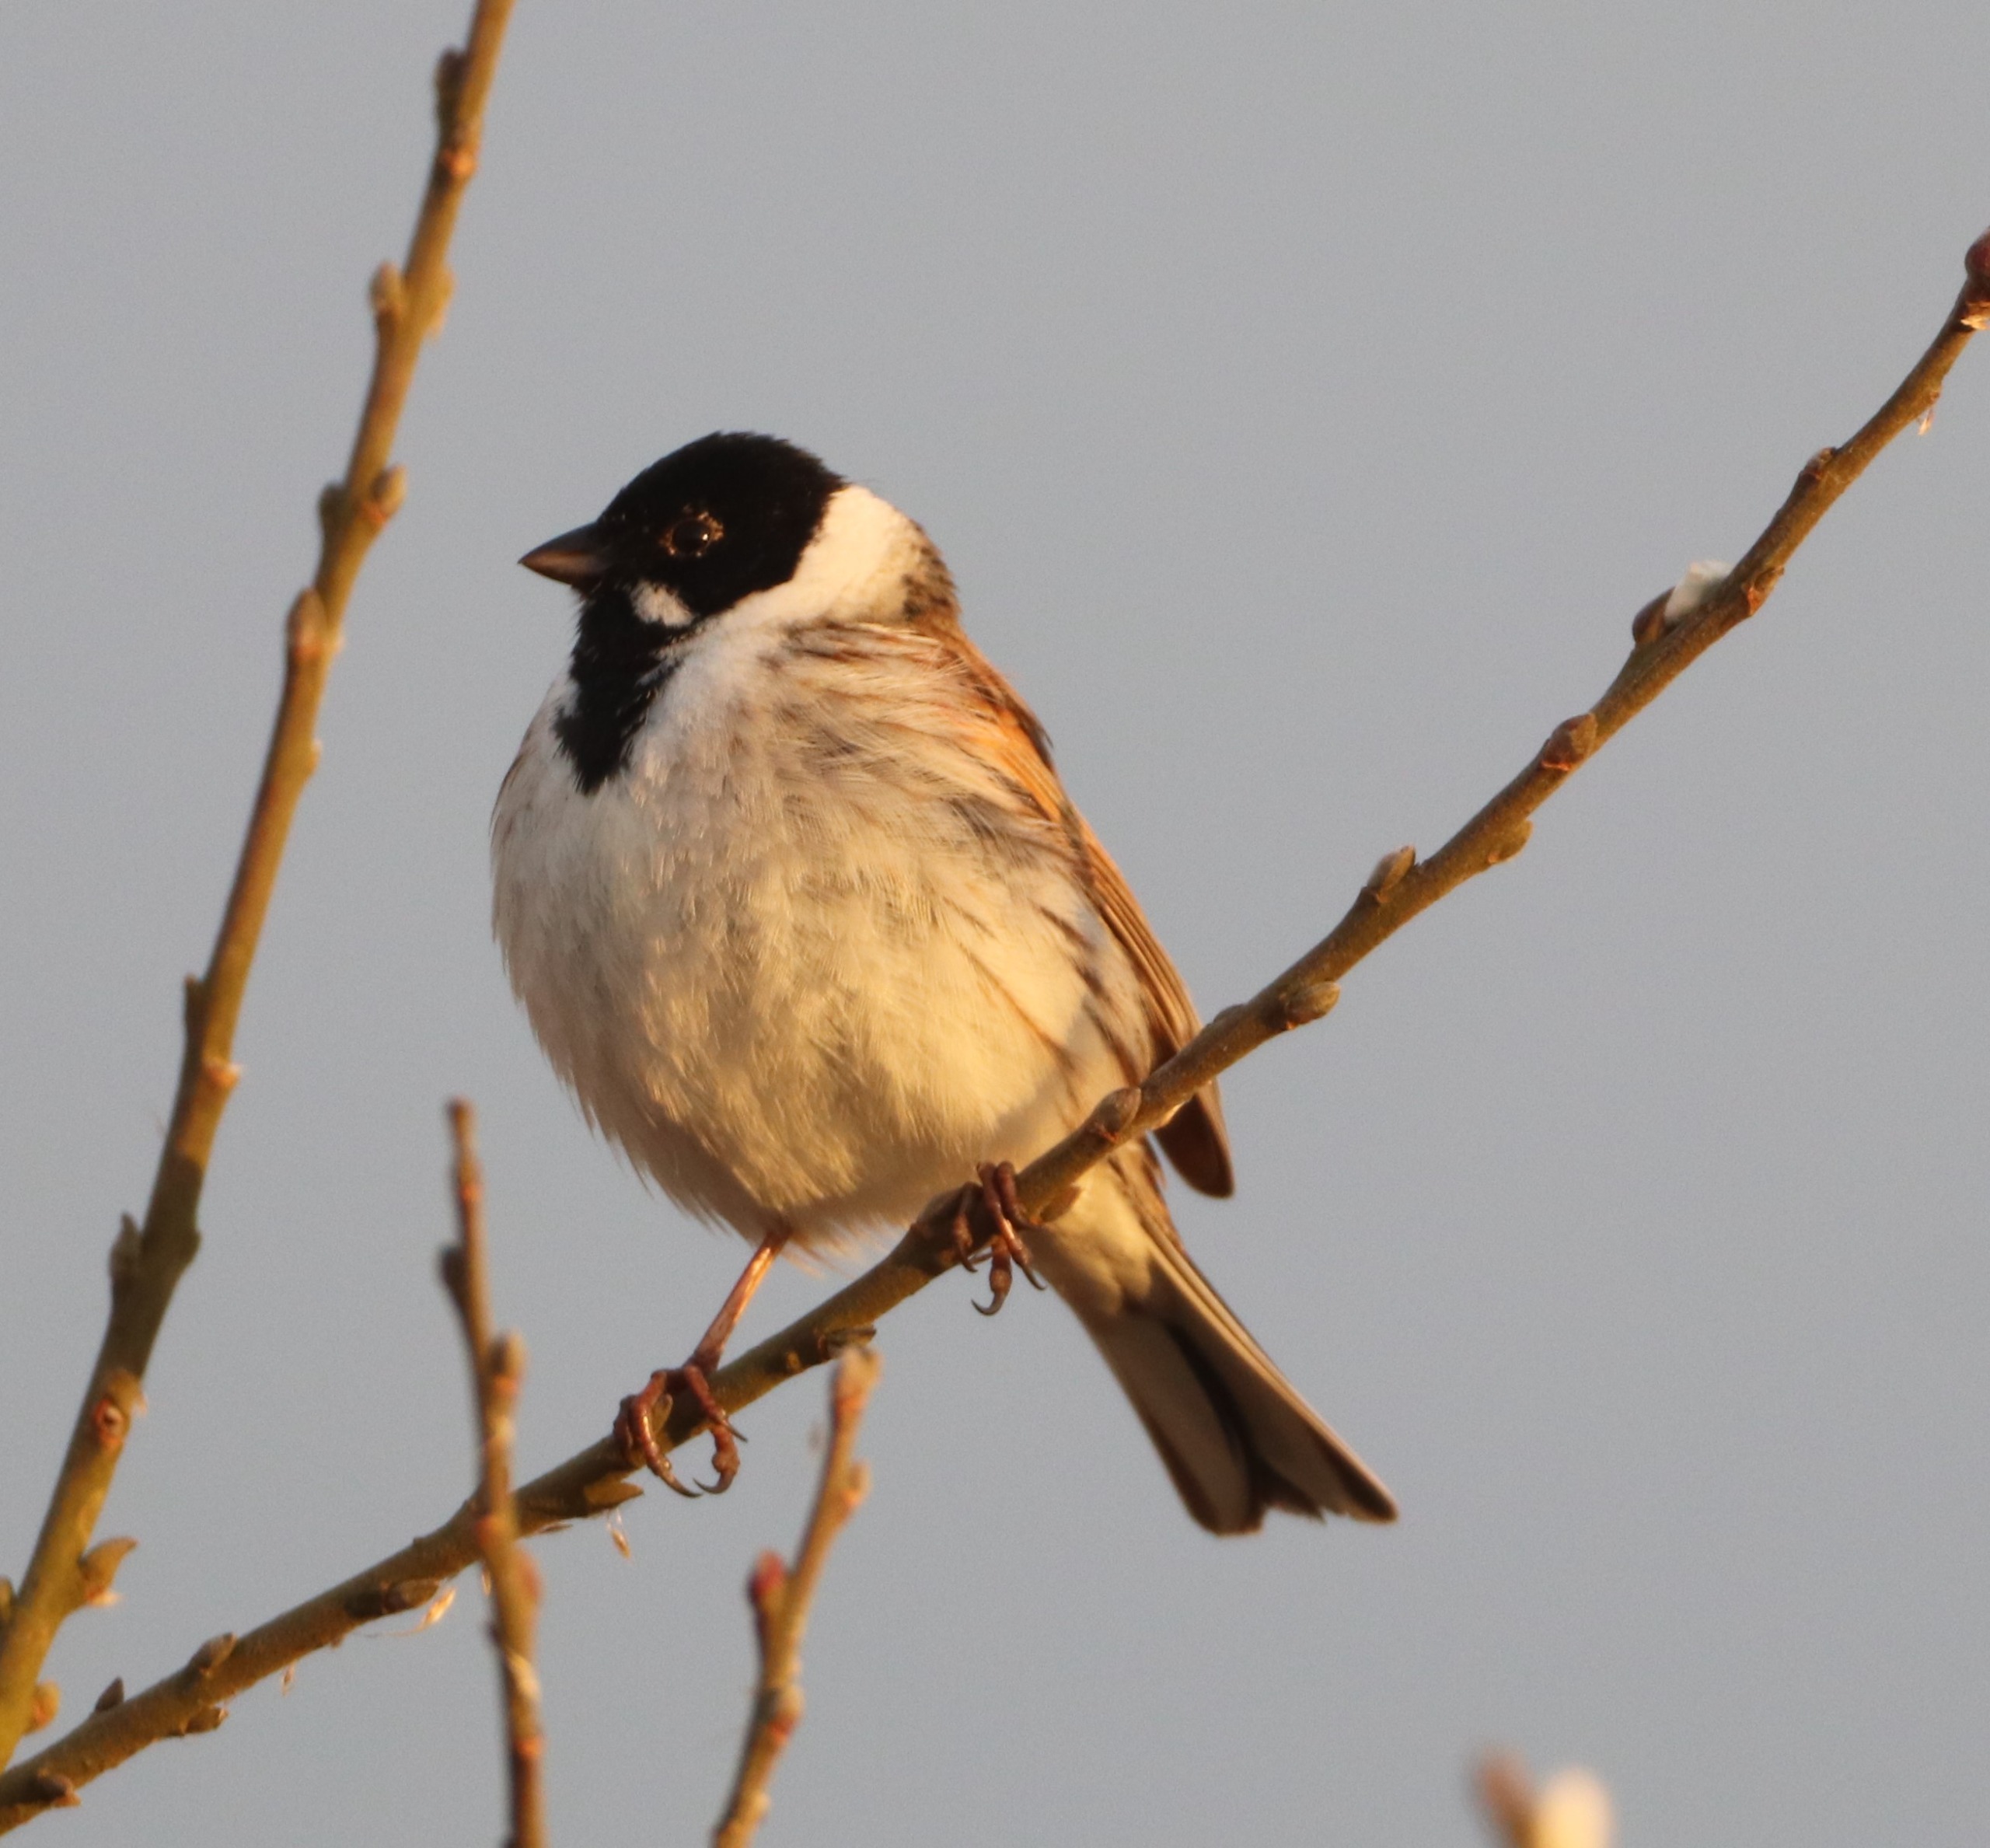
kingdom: Animalia
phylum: Chordata
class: Aves
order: Passeriformes
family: Emberizidae
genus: Emberiza
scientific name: Emberiza schoeniclus
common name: Rørspurv
